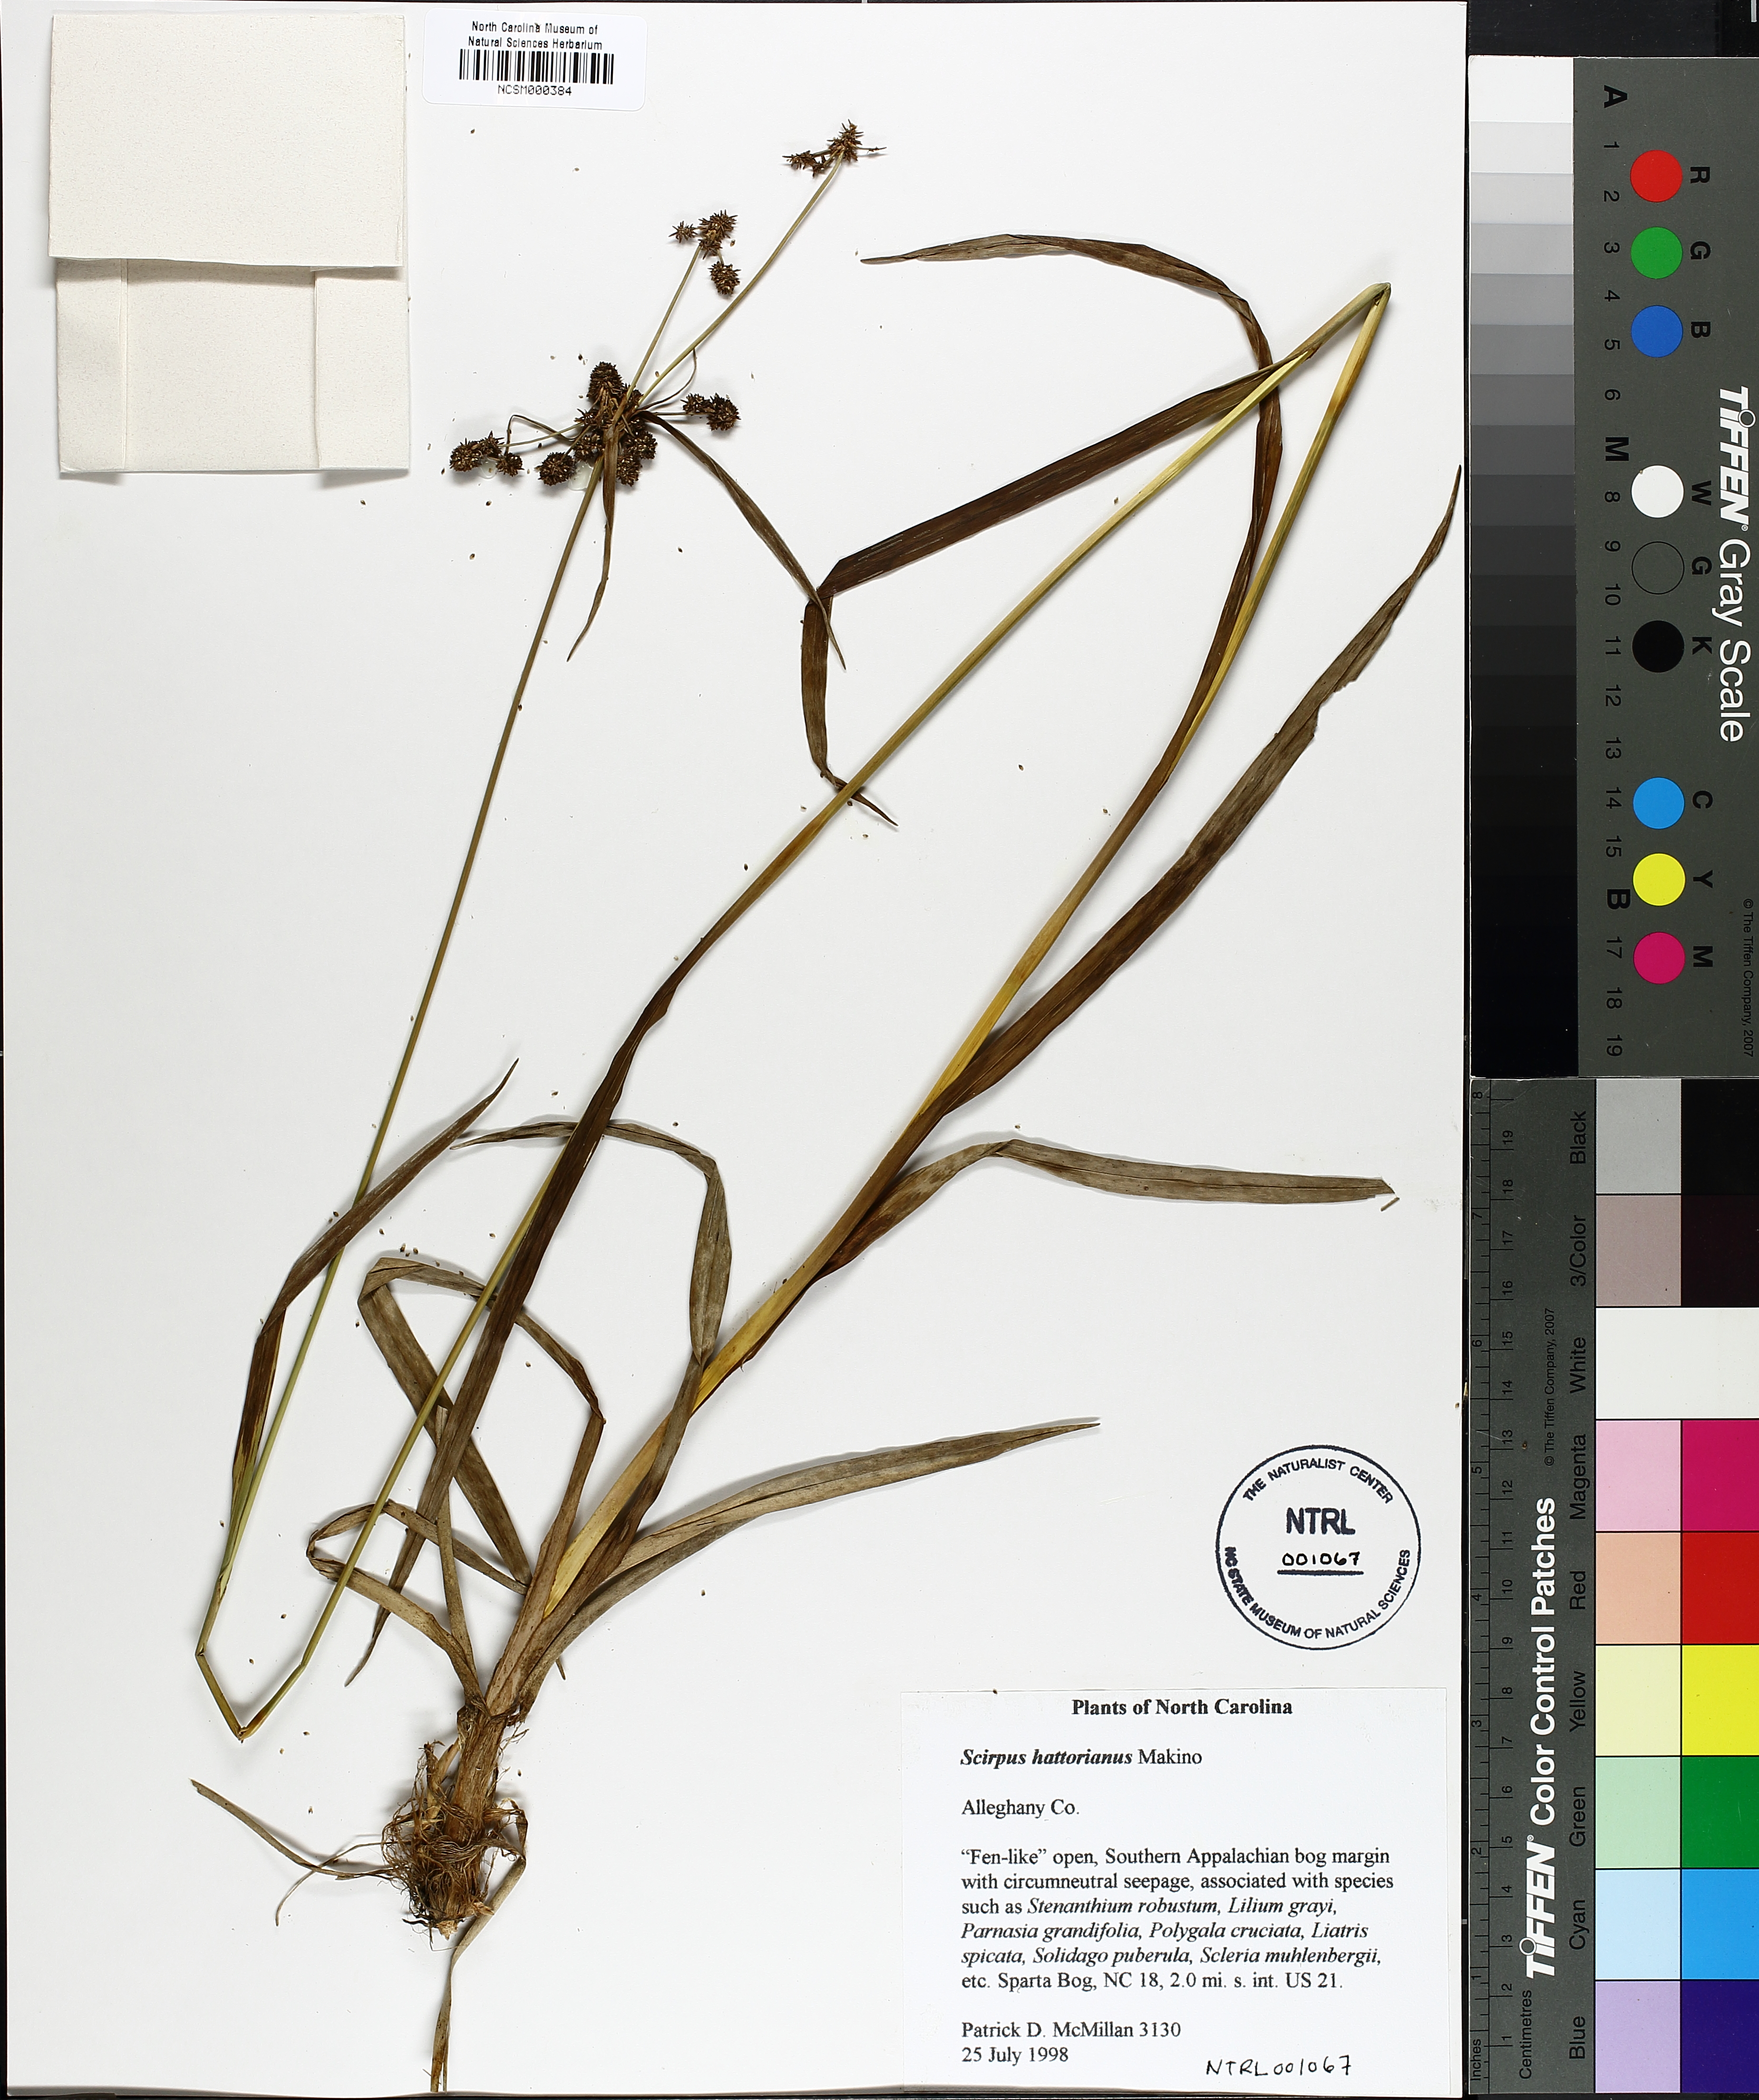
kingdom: Plantae
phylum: Tracheophyta
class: Liliopsida
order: Poales
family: Cyperaceae
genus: Scirpus
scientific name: Scirpus hattorianus
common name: Early dark-green bulrush
